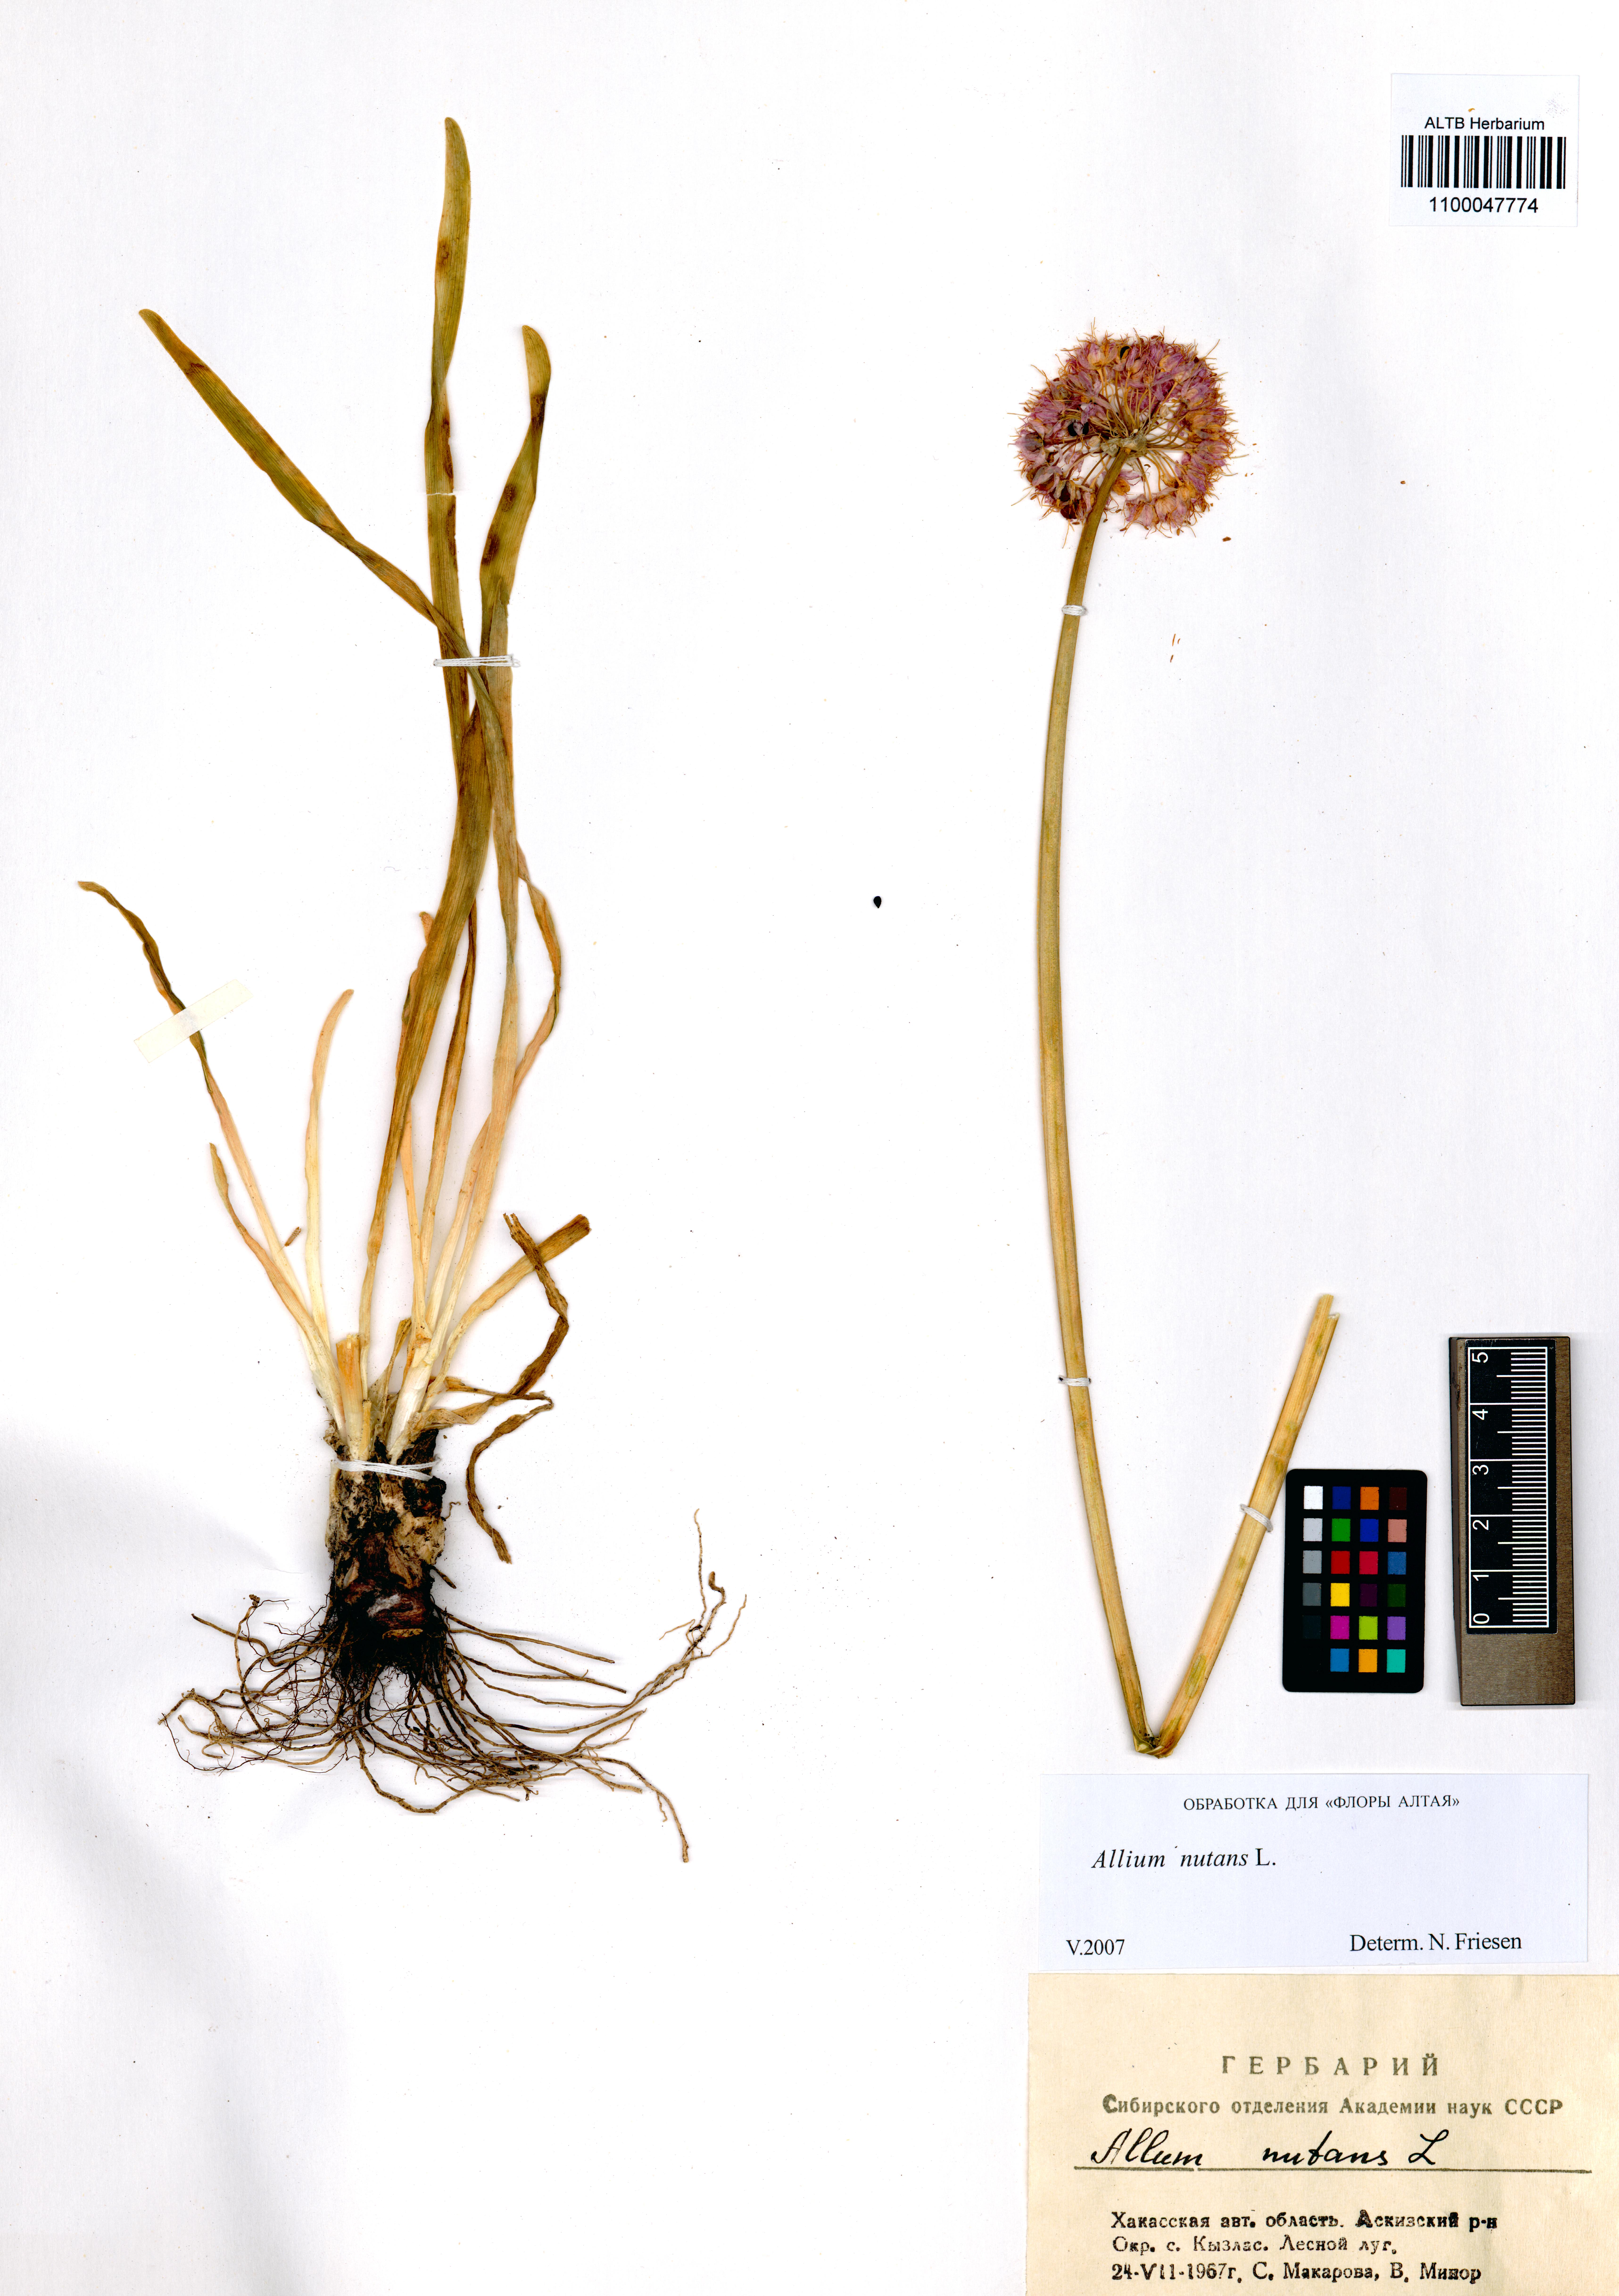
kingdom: Plantae
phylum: Tracheophyta
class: Liliopsida
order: Asparagales
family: Amaryllidaceae
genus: Allium
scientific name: Allium nutans
